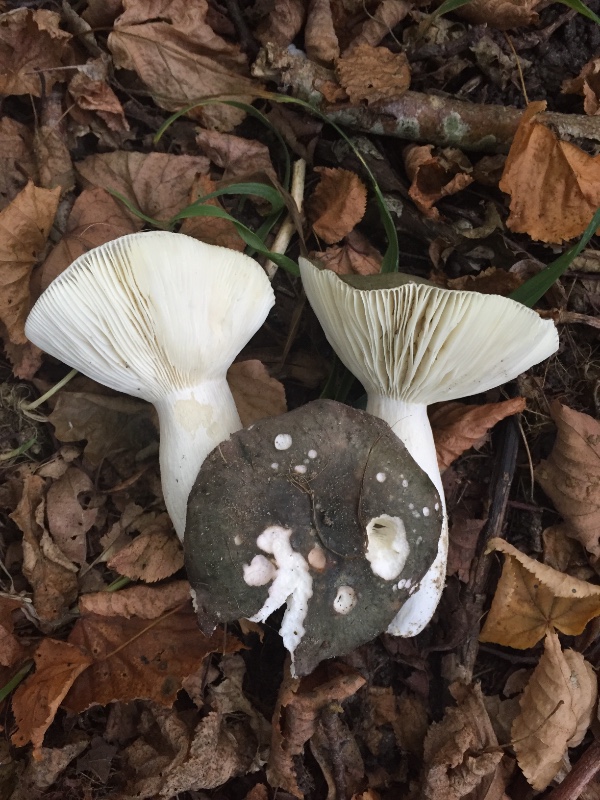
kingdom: Fungi
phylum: Basidiomycota
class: Agaricomycetes
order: Russulales
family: Russulaceae
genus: Russula
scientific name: Russula cyanoxantha
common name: broget skørhat
